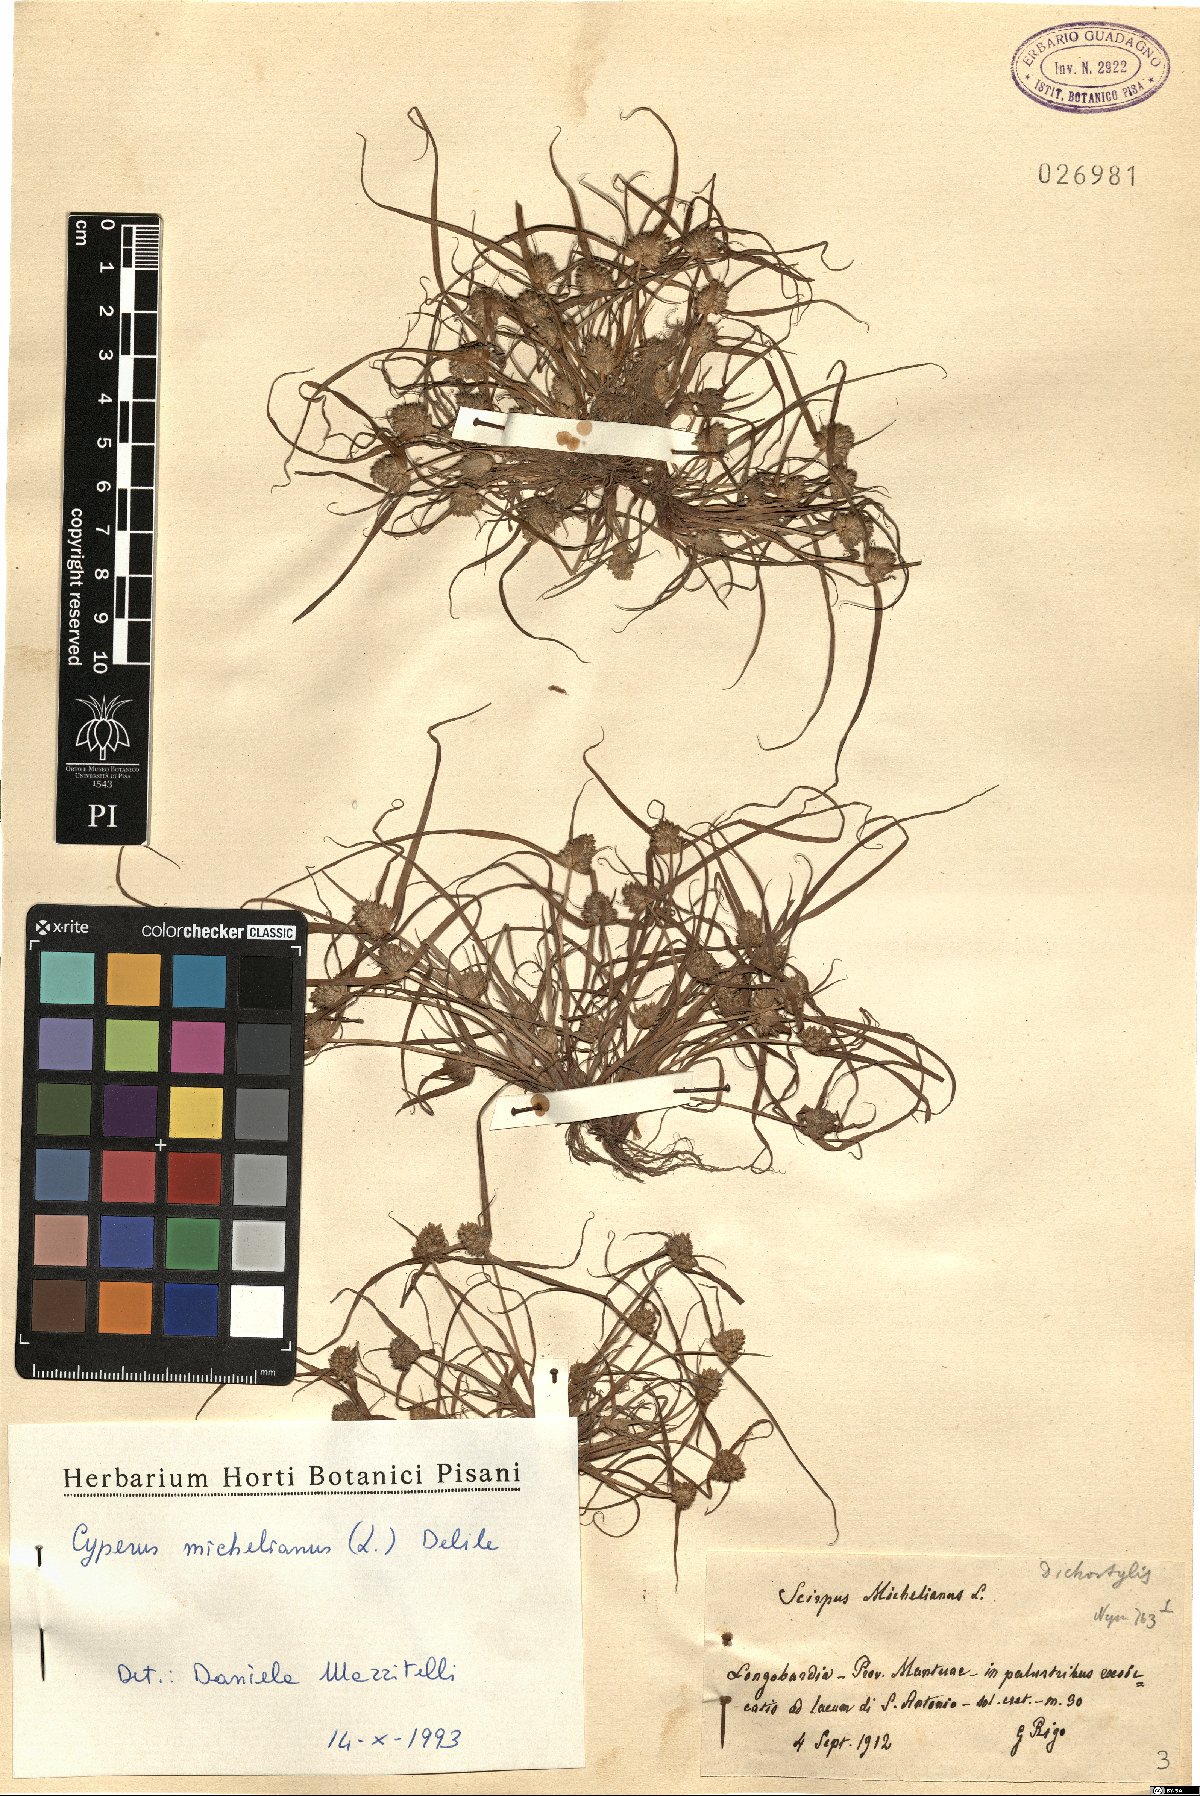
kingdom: Plantae
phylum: Tracheophyta
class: Liliopsida
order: Poales
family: Cyperaceae
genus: Cyperus
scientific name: Cyperus michelianus
